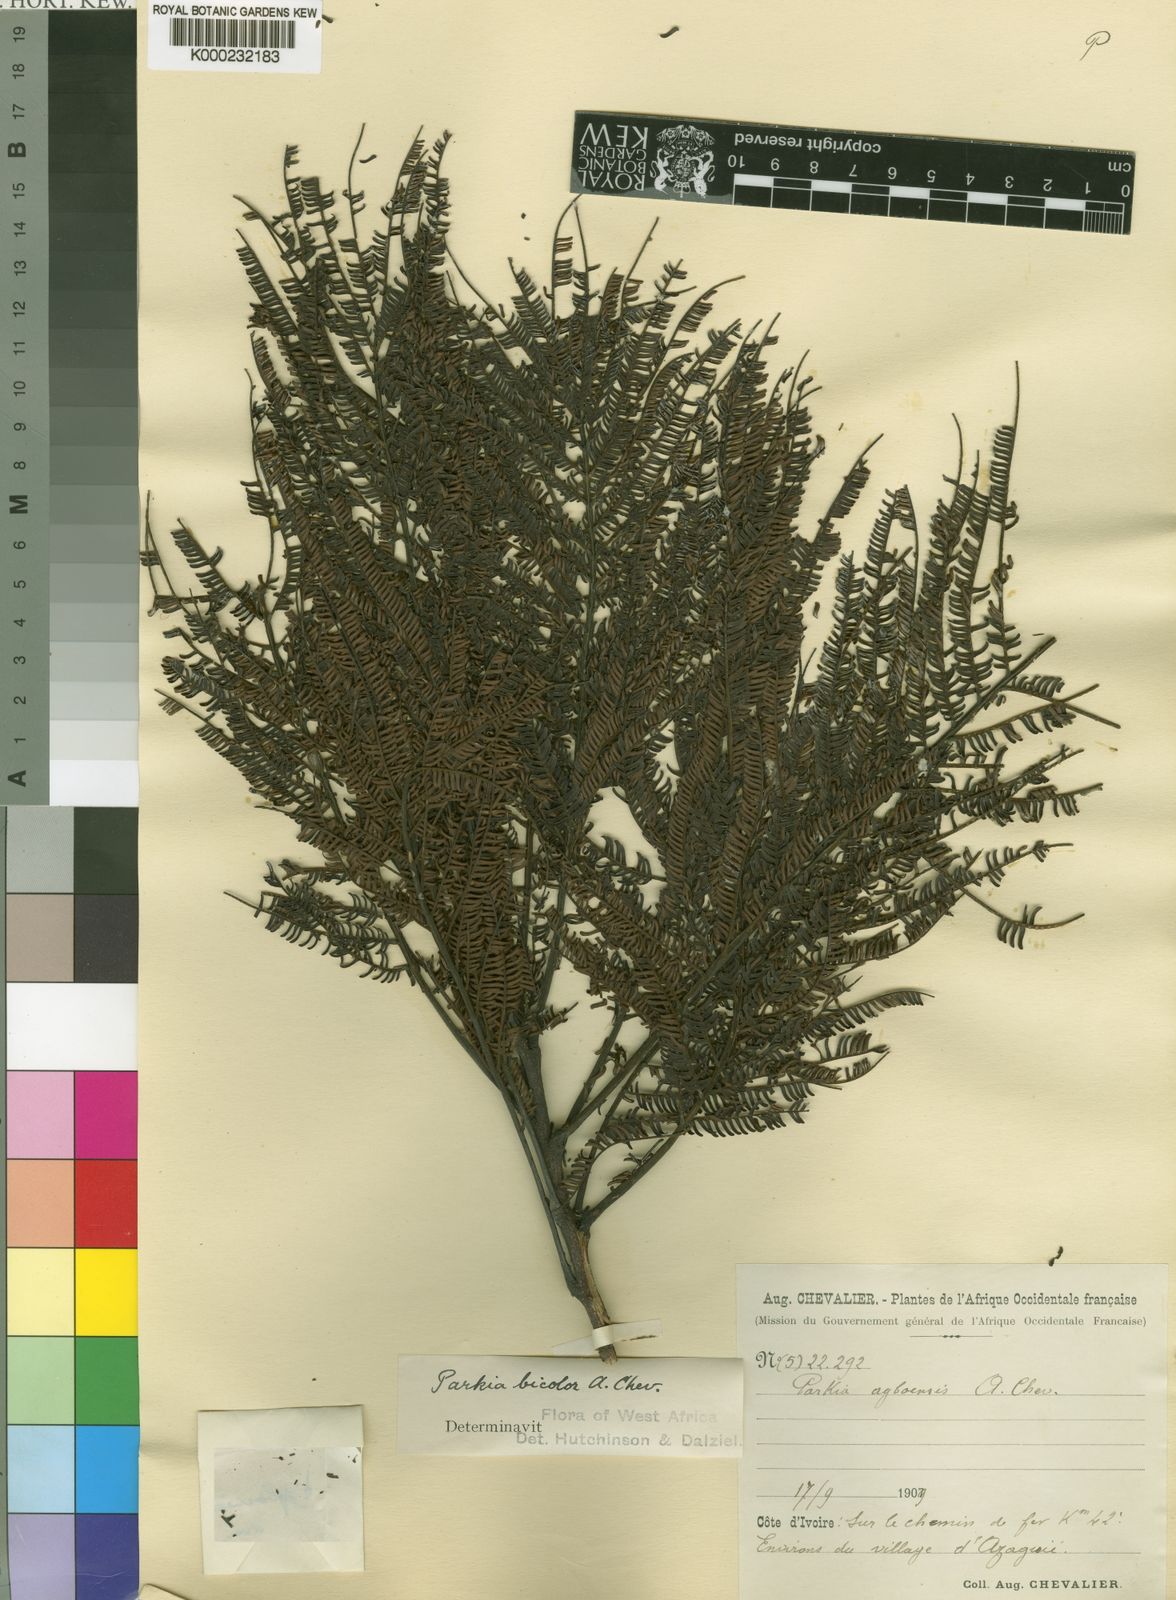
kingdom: Plantae
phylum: Tracheophyta
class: Magnoliopsida
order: Fabales
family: Fabaceae
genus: Parkia
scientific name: Parkia bicolor
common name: African locust-bean
